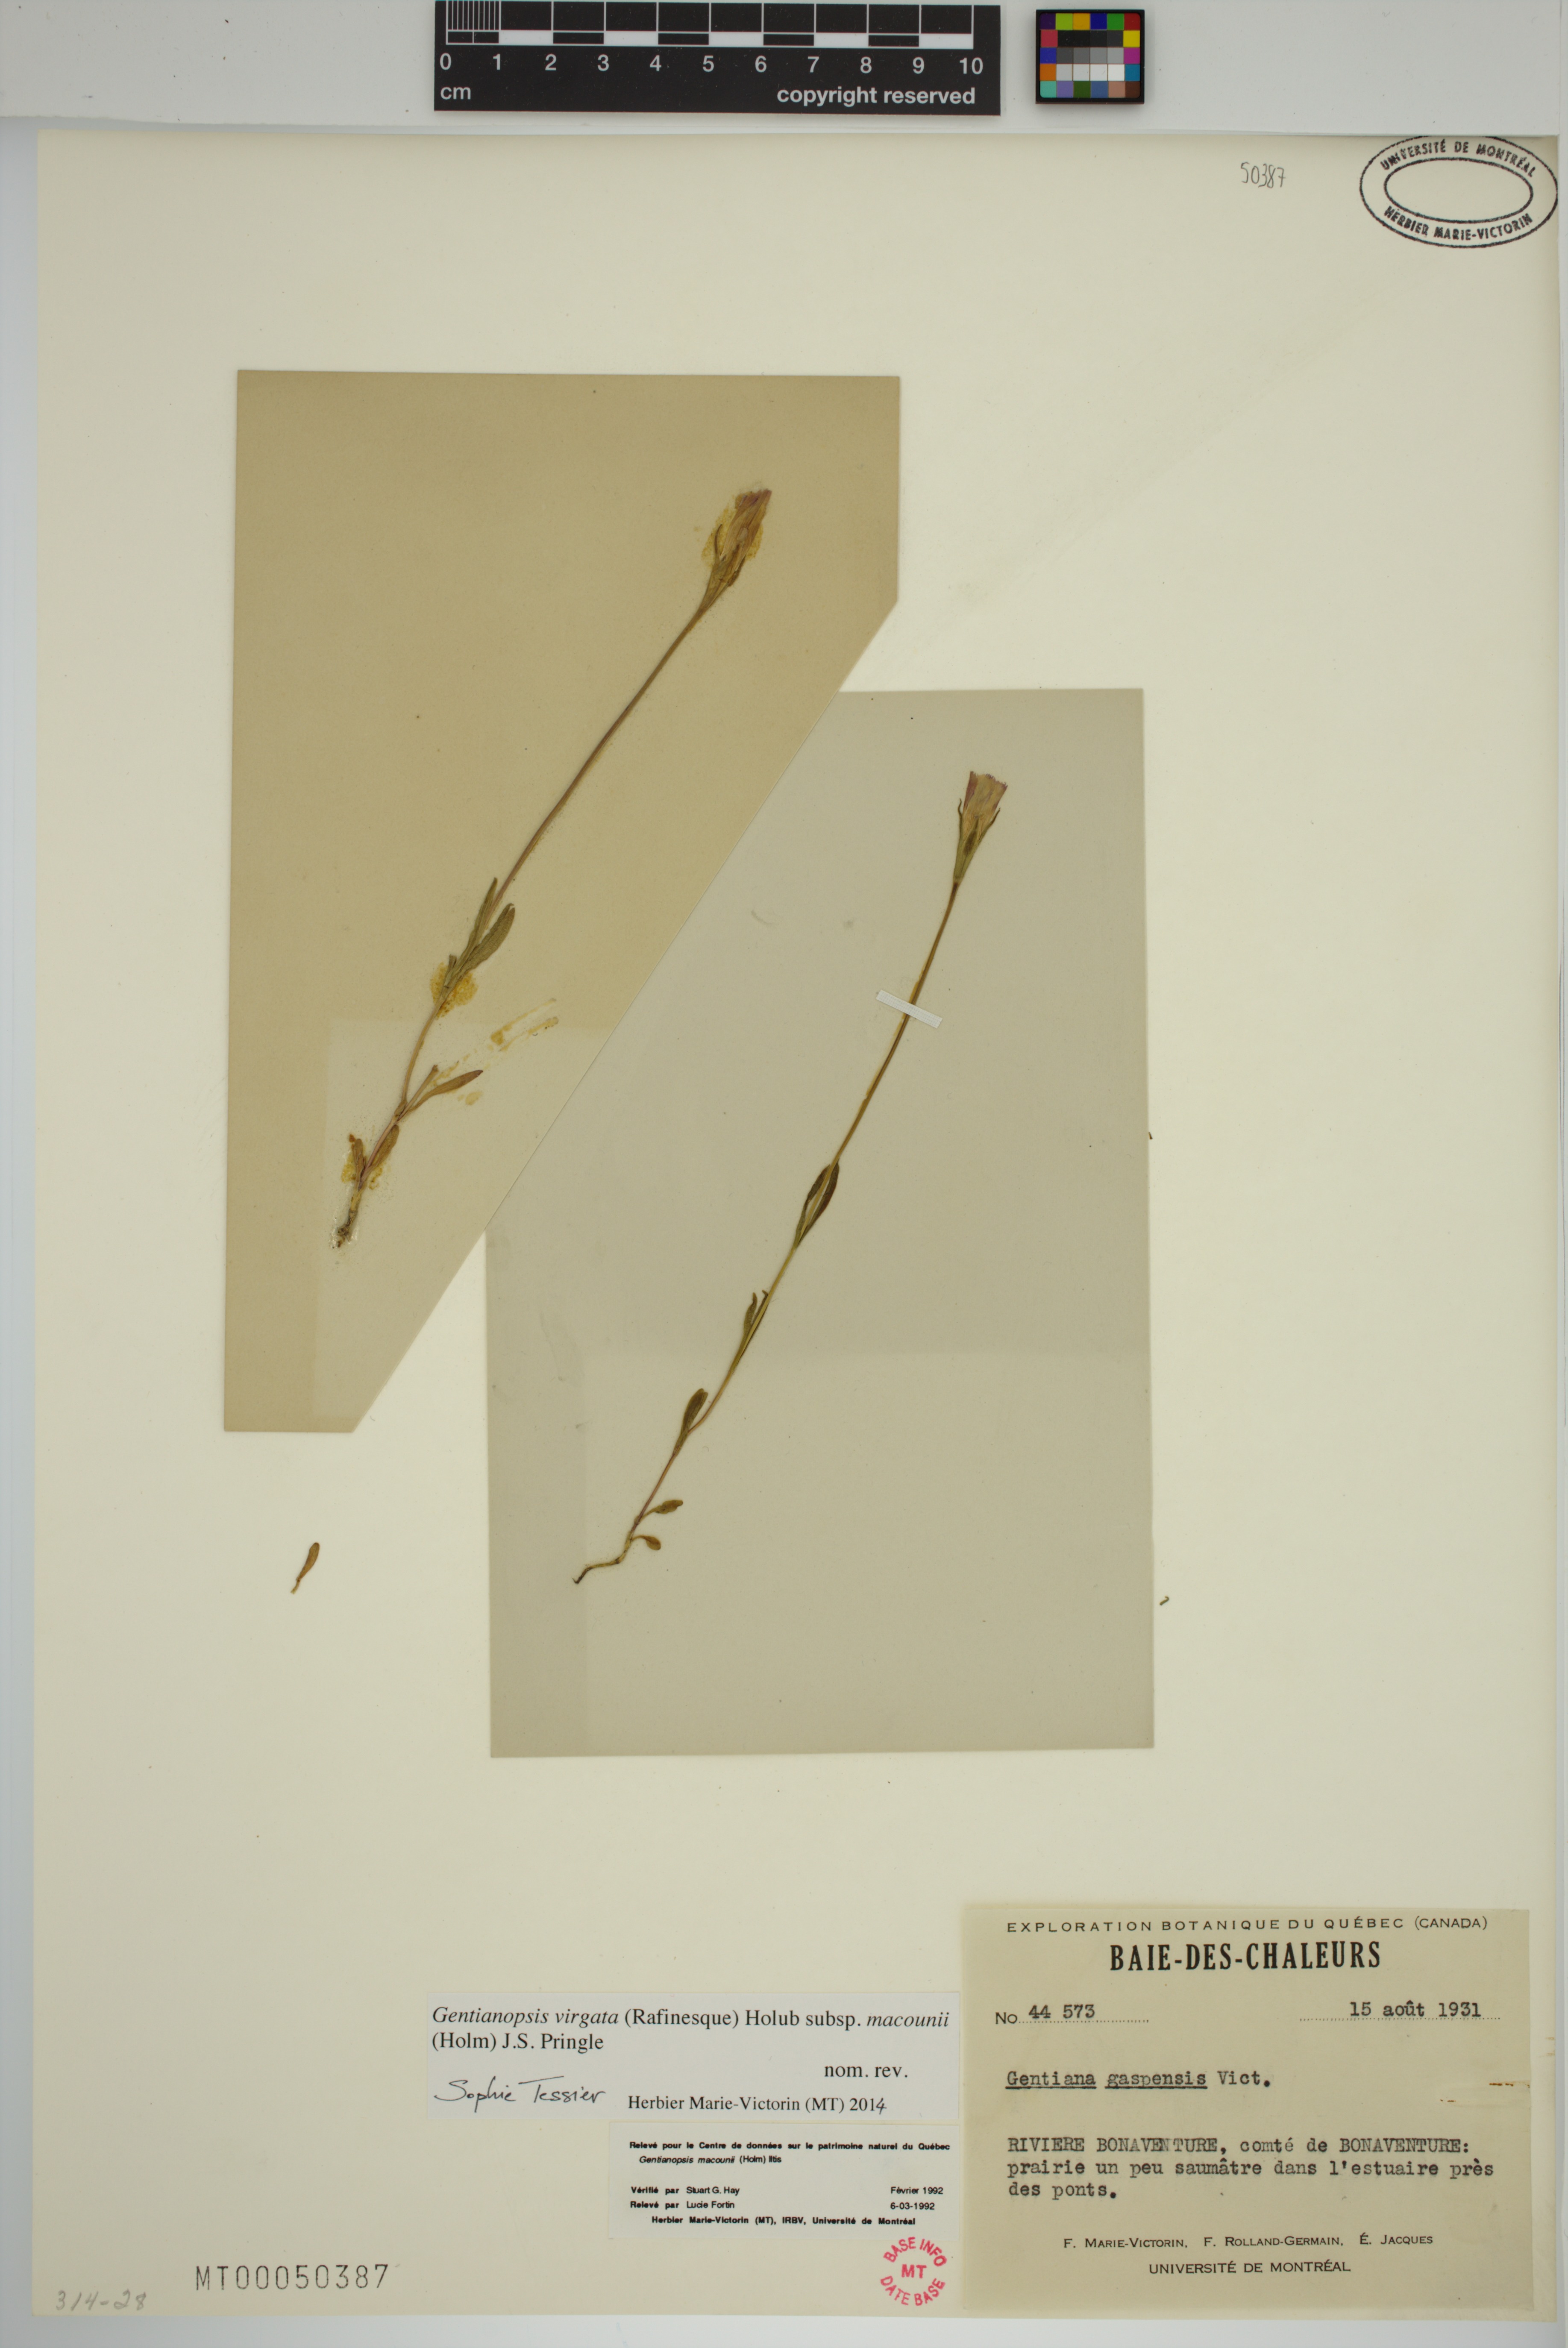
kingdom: Plantae
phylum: Tracheophyta
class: Magnoliopsida
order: Gentianales
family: Gentianaceae
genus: Gentianopsis
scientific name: Gentianopsis macounii
